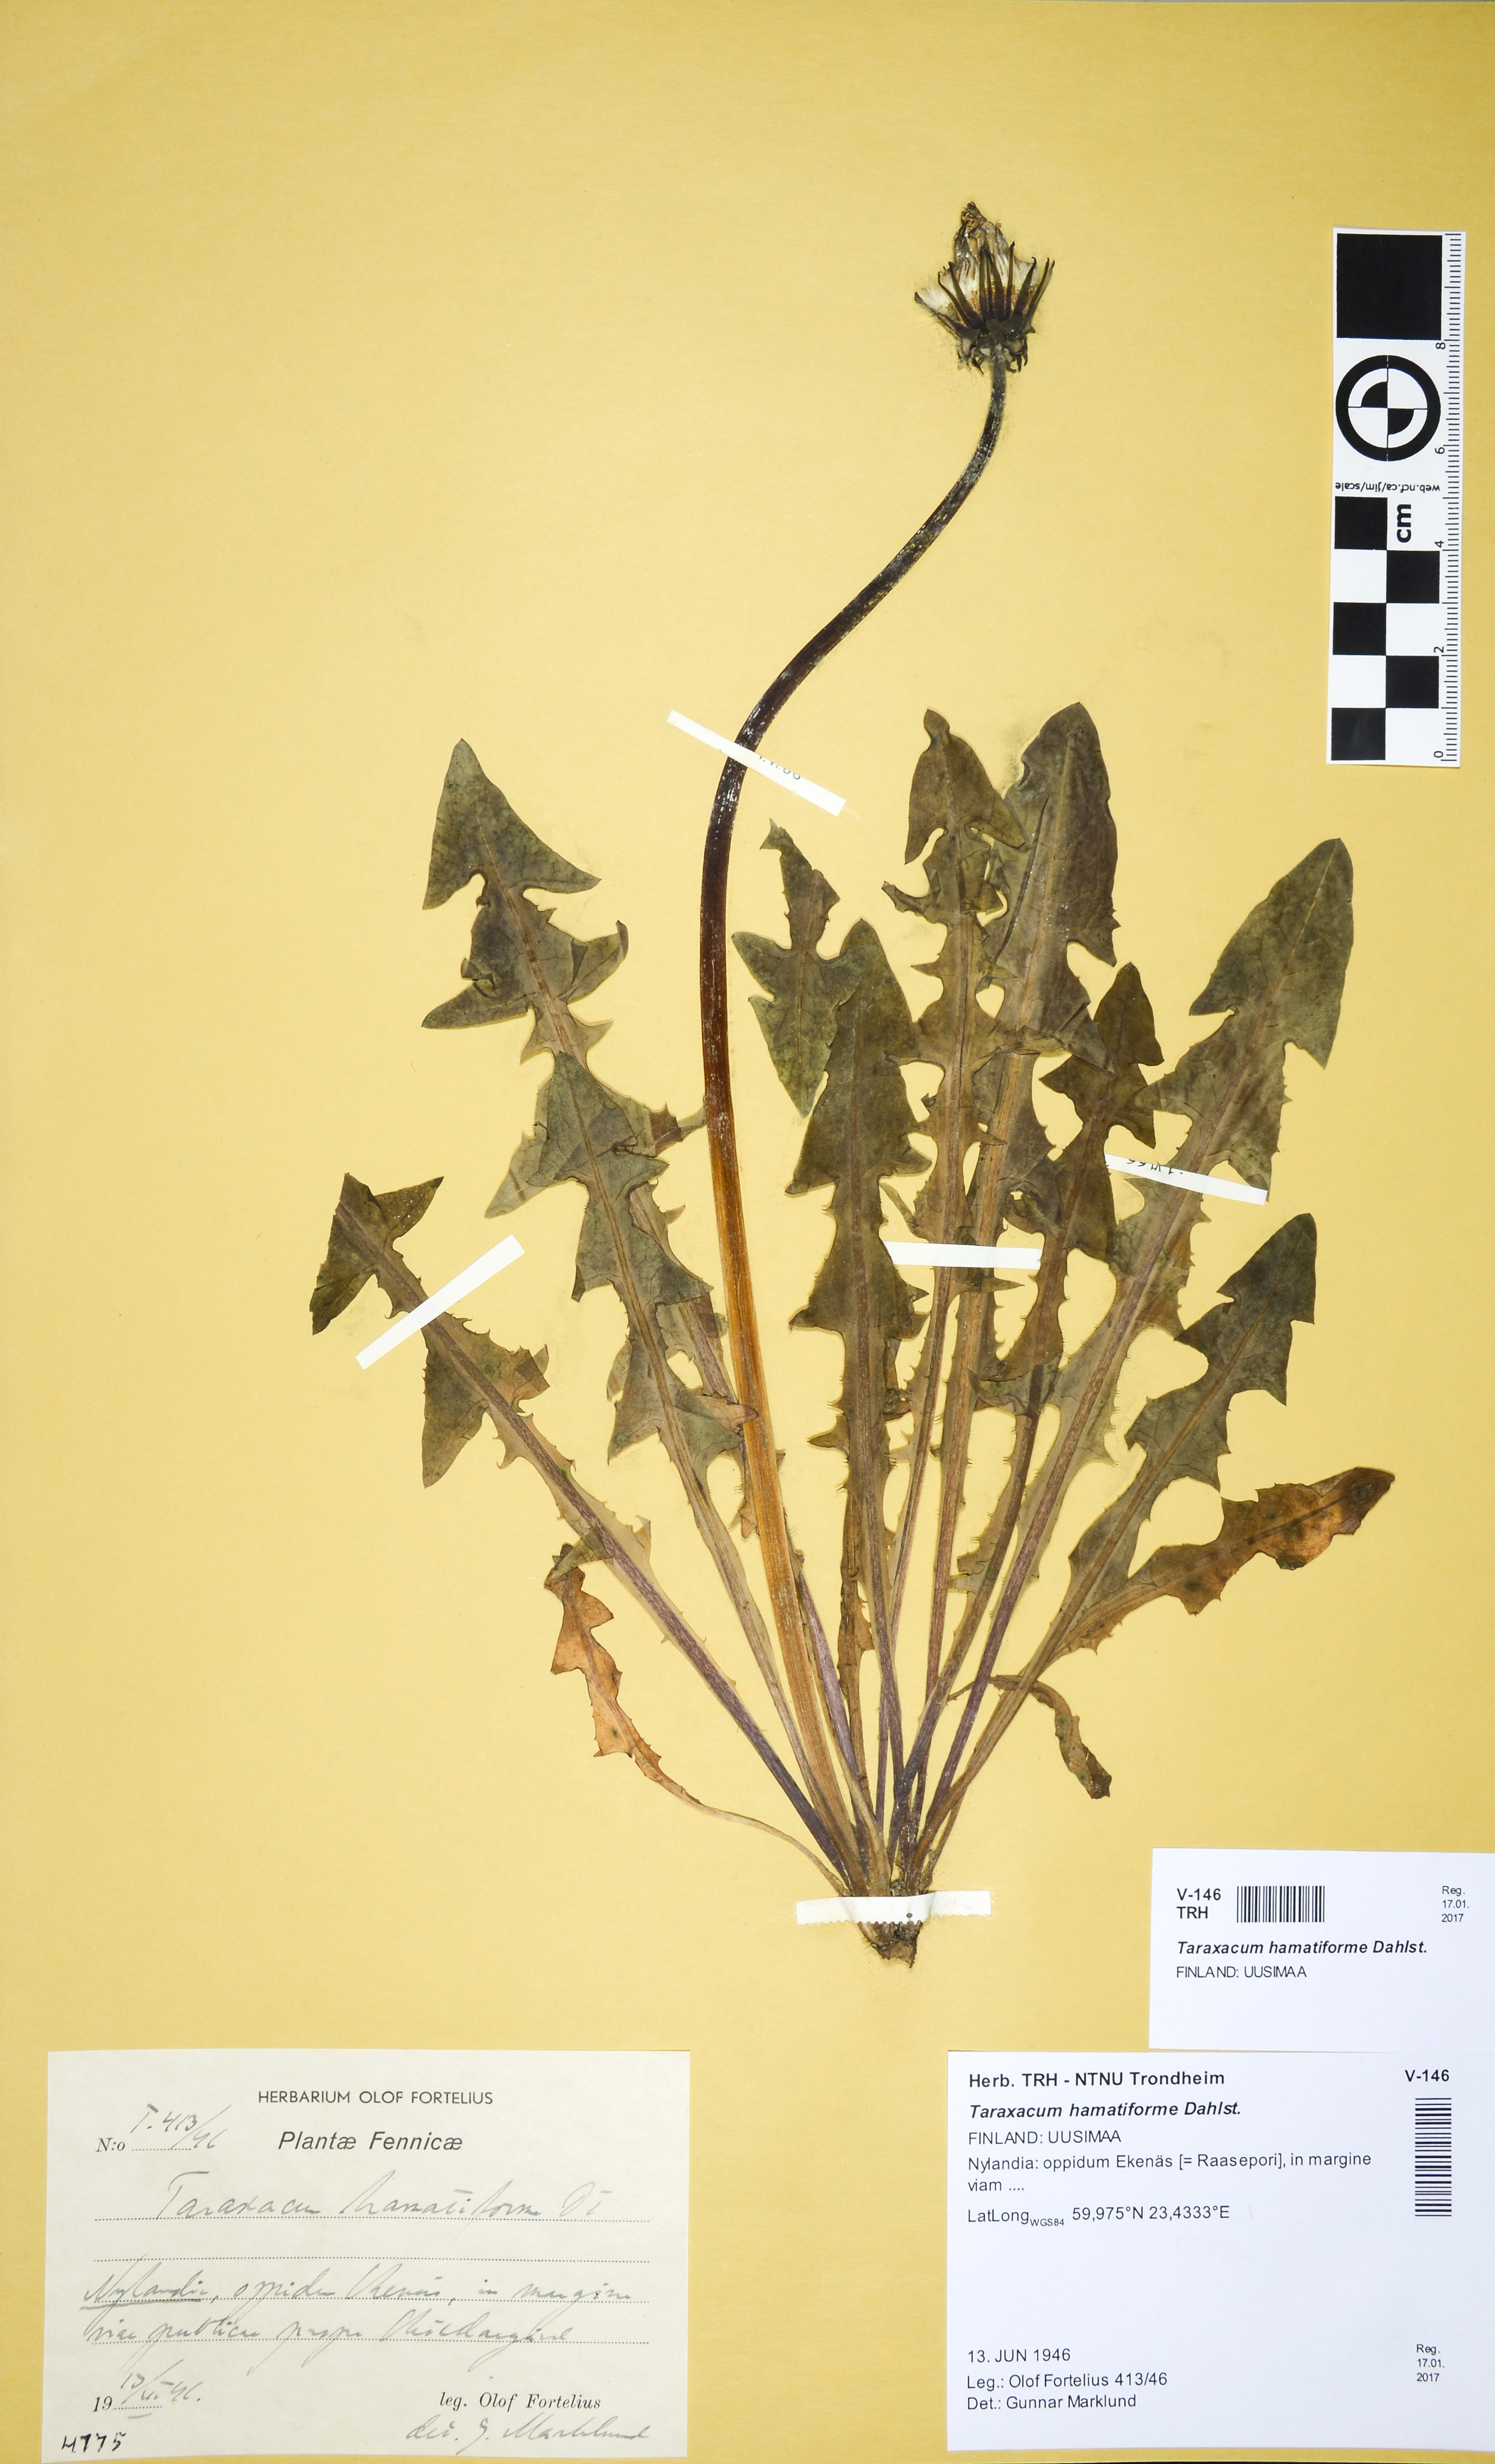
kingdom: Plantae
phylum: Tracheophyta
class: Magnoliopsida
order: Asterales
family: Asteraceae
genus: Taraxacum
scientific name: Taraxacum hamatiforme
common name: Asymmetrical hook-lobed dandelion
